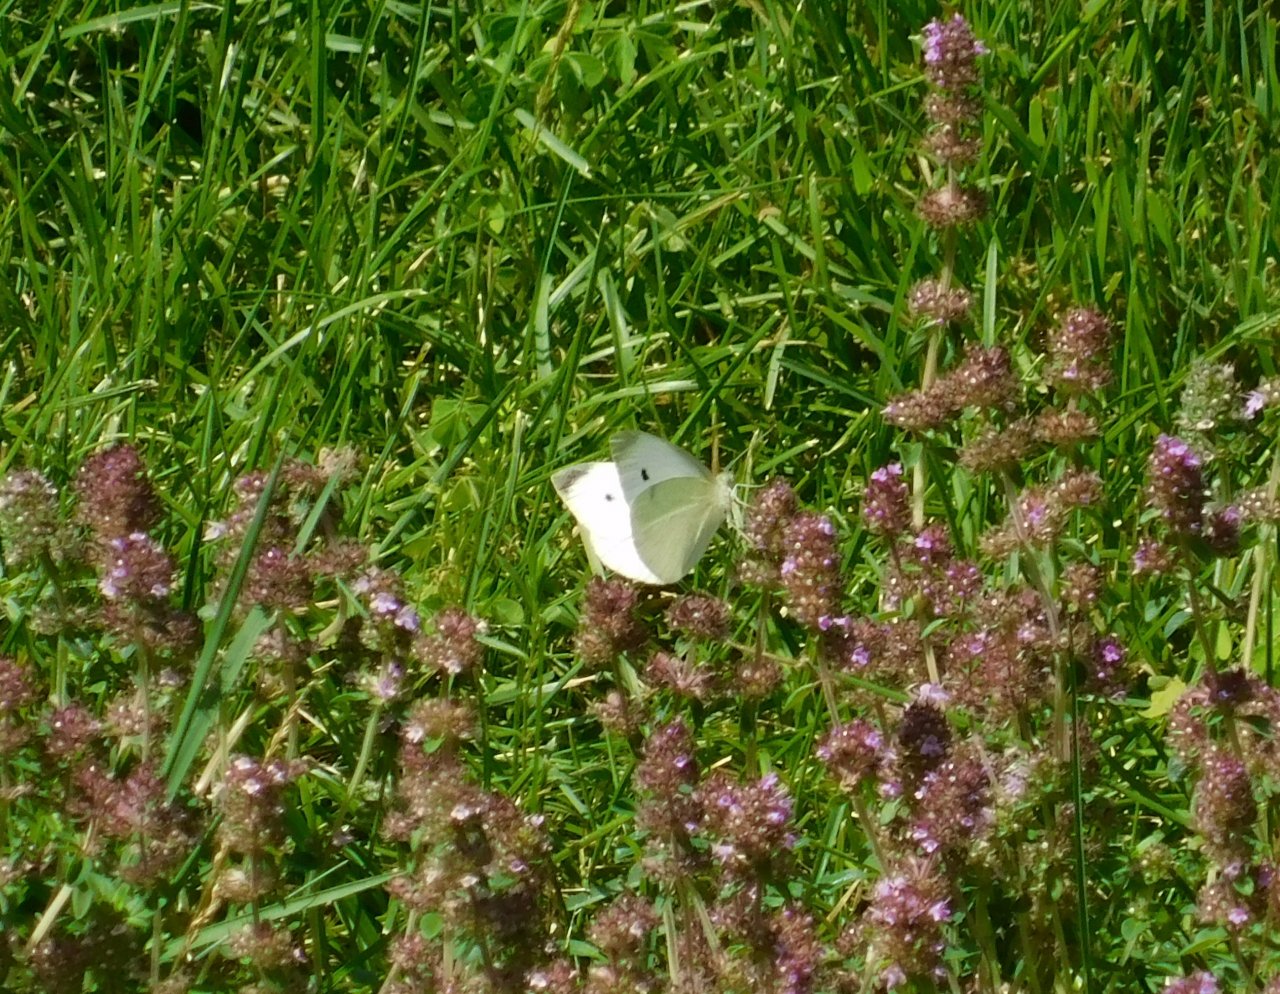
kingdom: Animalia
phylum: Arthropoda
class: Insecta
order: Lepidoptera
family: Pieridae
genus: Pieris
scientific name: Pieris rapae
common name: Cabbage White
